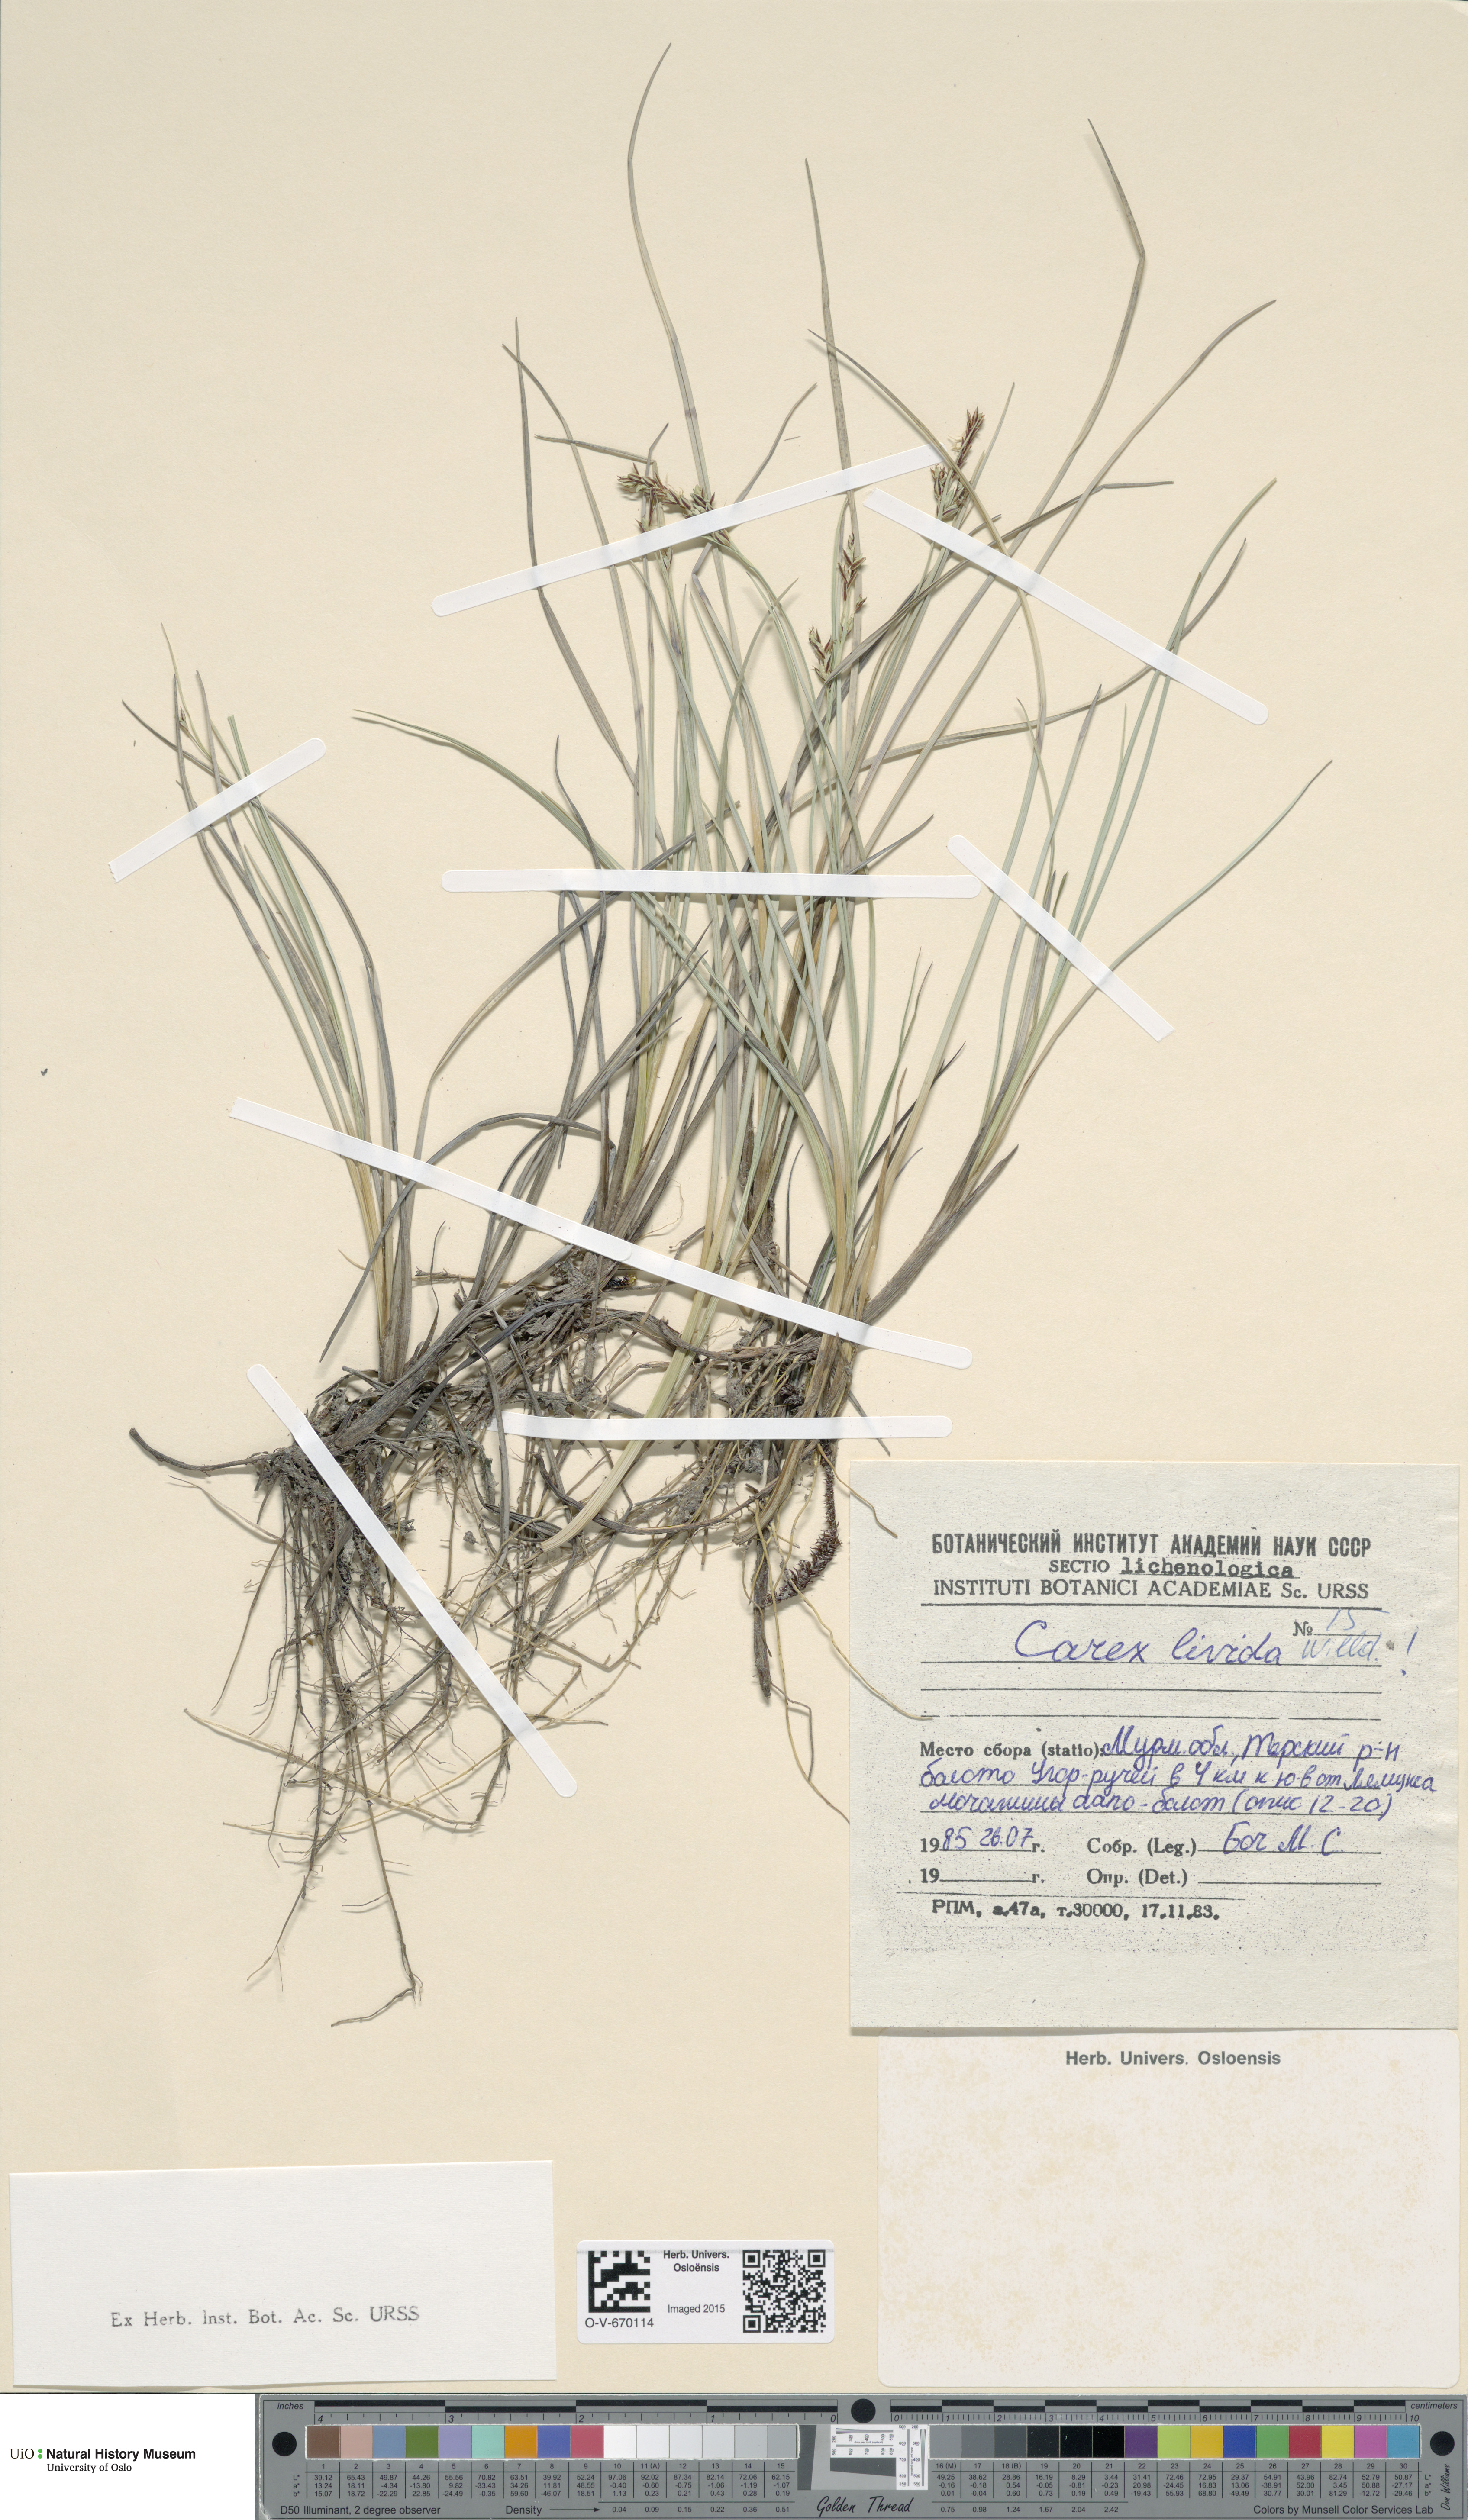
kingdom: Plantae
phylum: Tracheophyta
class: Liliopsida
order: Poales
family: Cyperaceae
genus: Carex
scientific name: Carex livida
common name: Livid sedge
